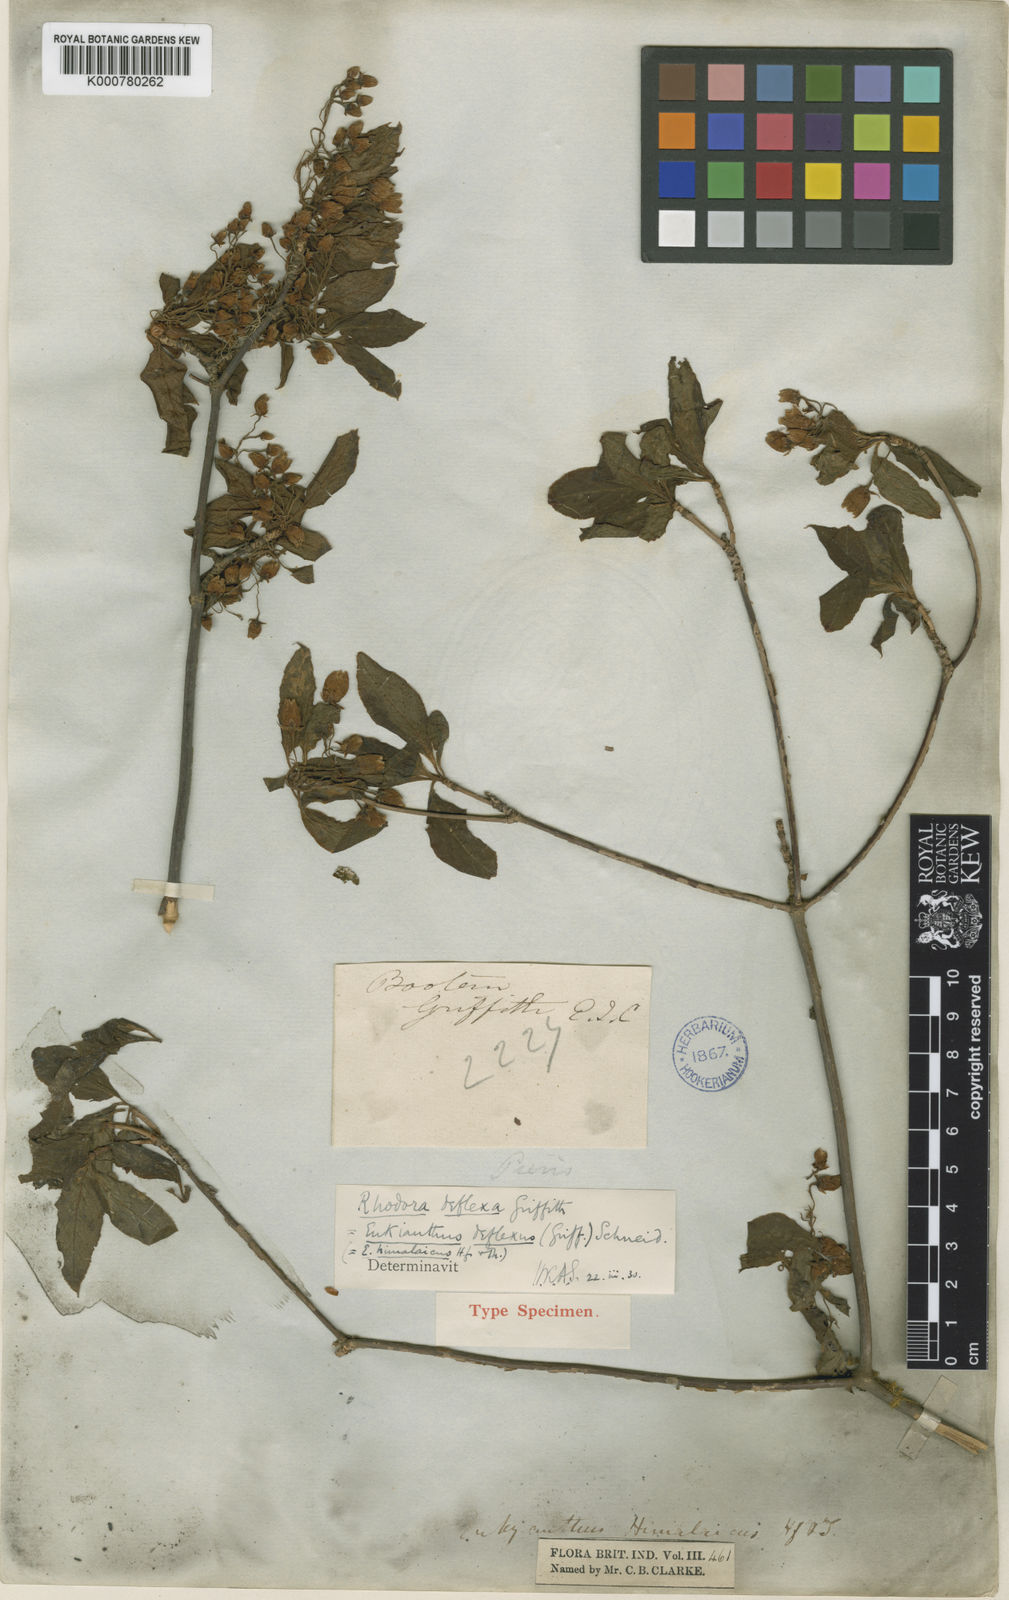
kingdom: Plantae
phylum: Tracheophyta
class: Magnoliopsida
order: Ericales
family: Ericaceae
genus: Enkianthus
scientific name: Enkianthus deflexus
